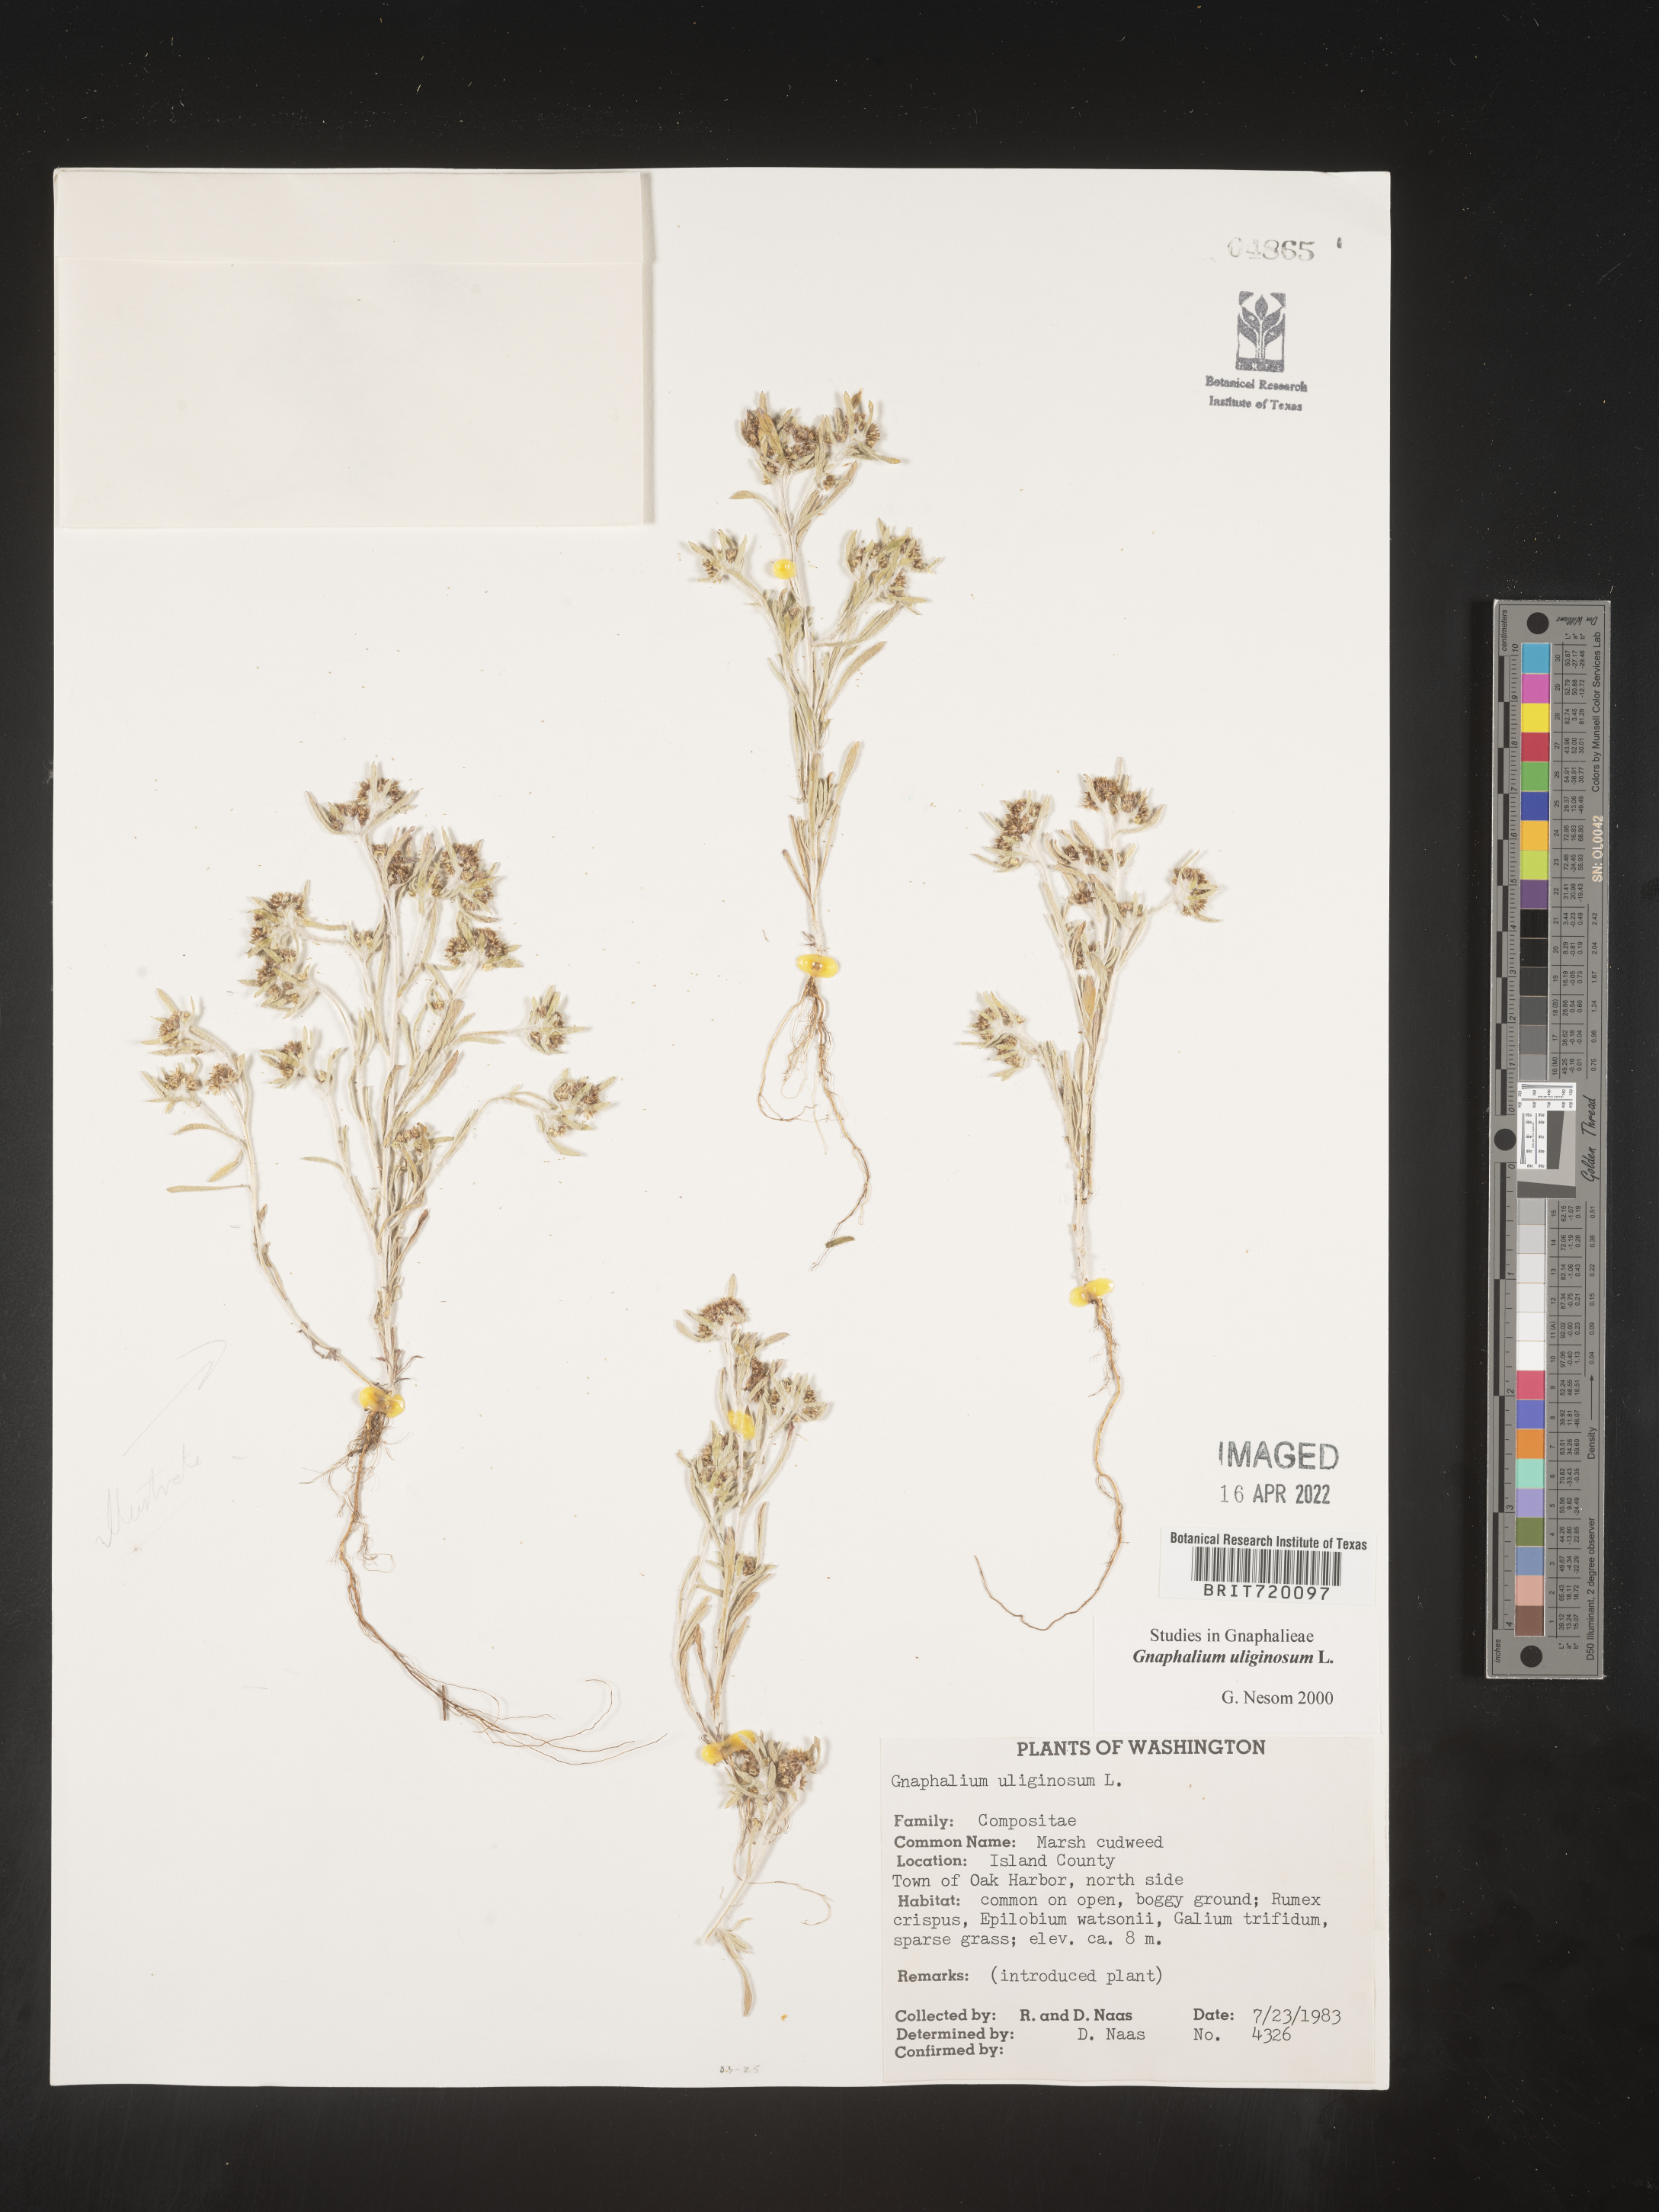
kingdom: Plantae
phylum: Tracheophyta
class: Magnoliopsida
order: Asterales
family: Asteraceae
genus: Gnaphalium
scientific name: Gnaphalium uliginosum
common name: Marsh cudweed
